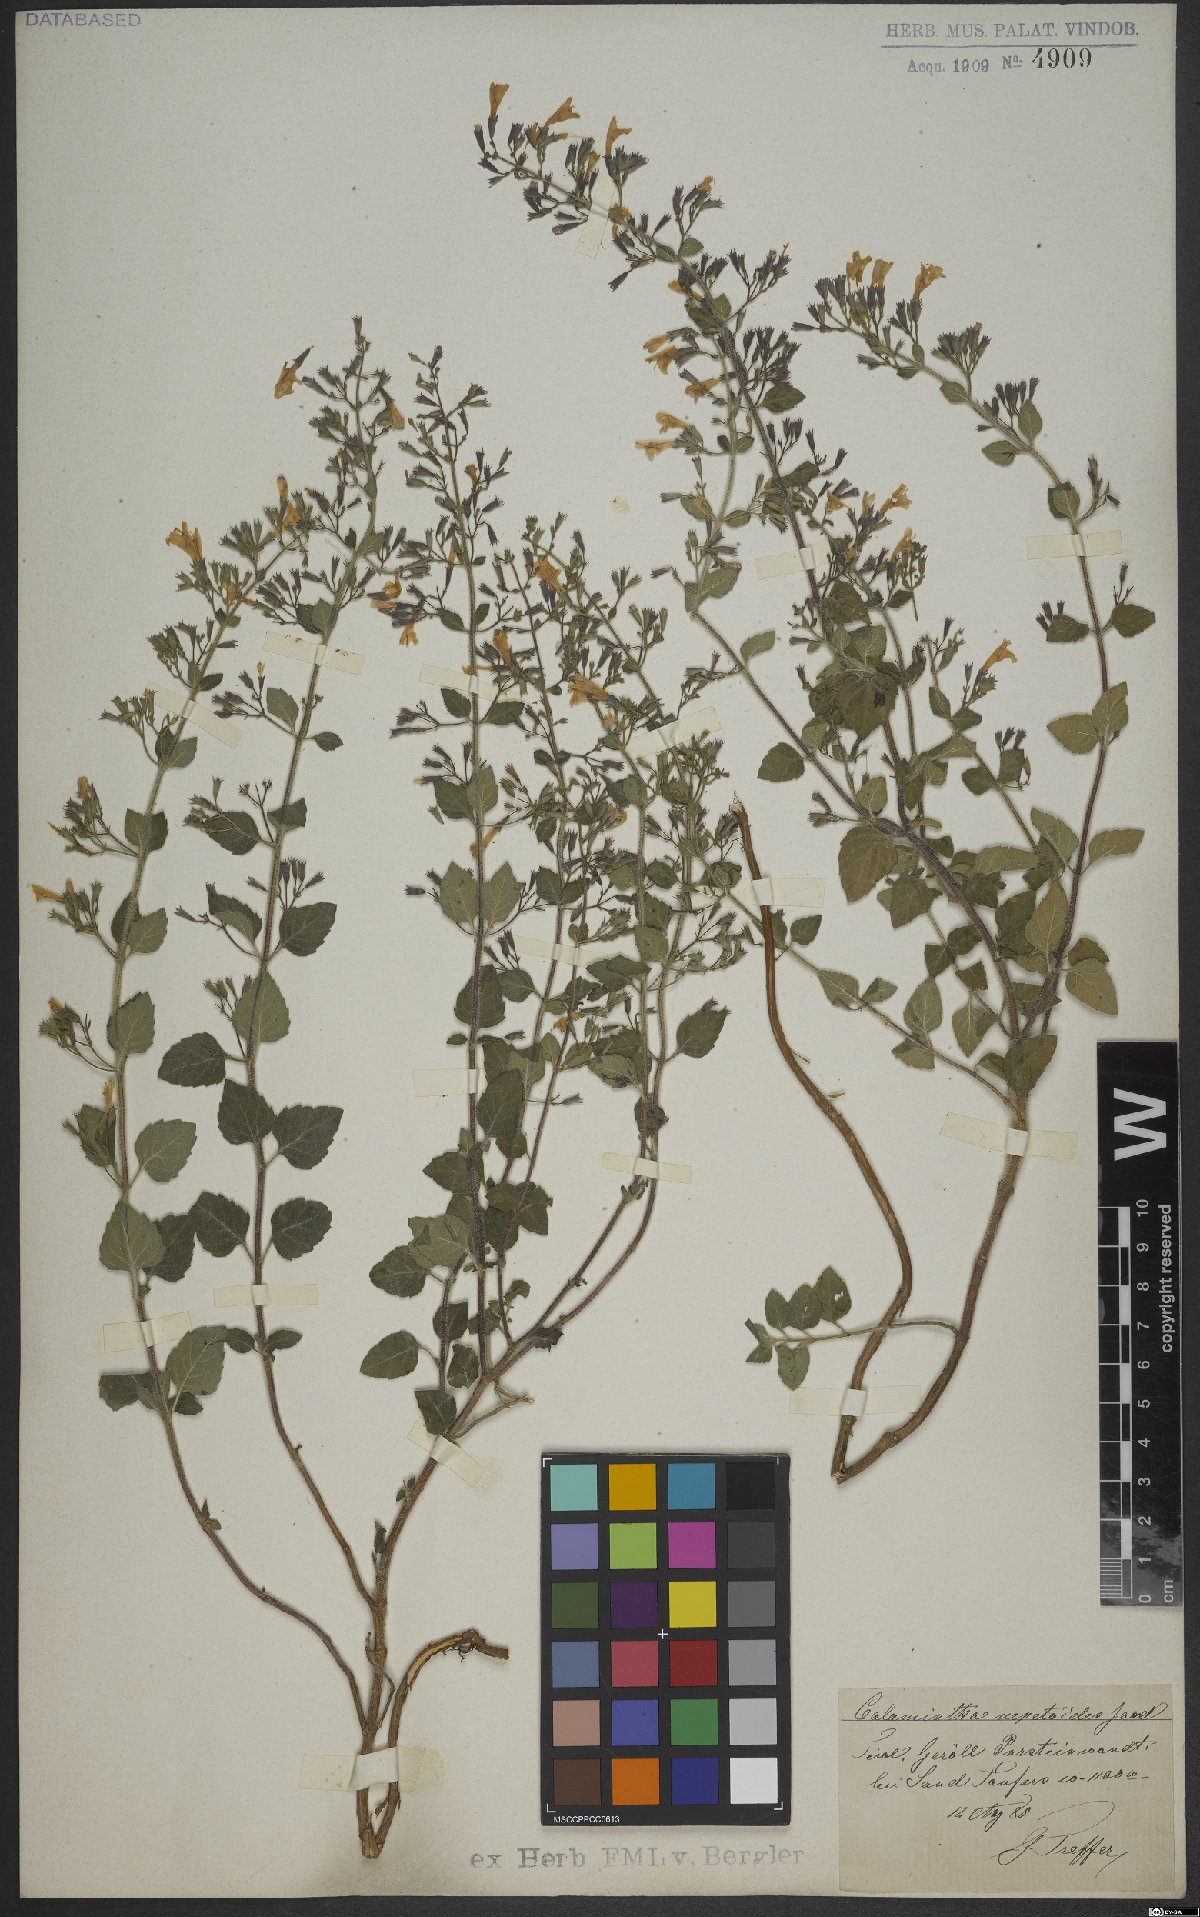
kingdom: Plantae
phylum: Tracheophyta
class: Magnoliopsida
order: Lamiales
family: Lamiaceae
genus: Clinopodium
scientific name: Clinopodium nepeta
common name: Lesser calamint
